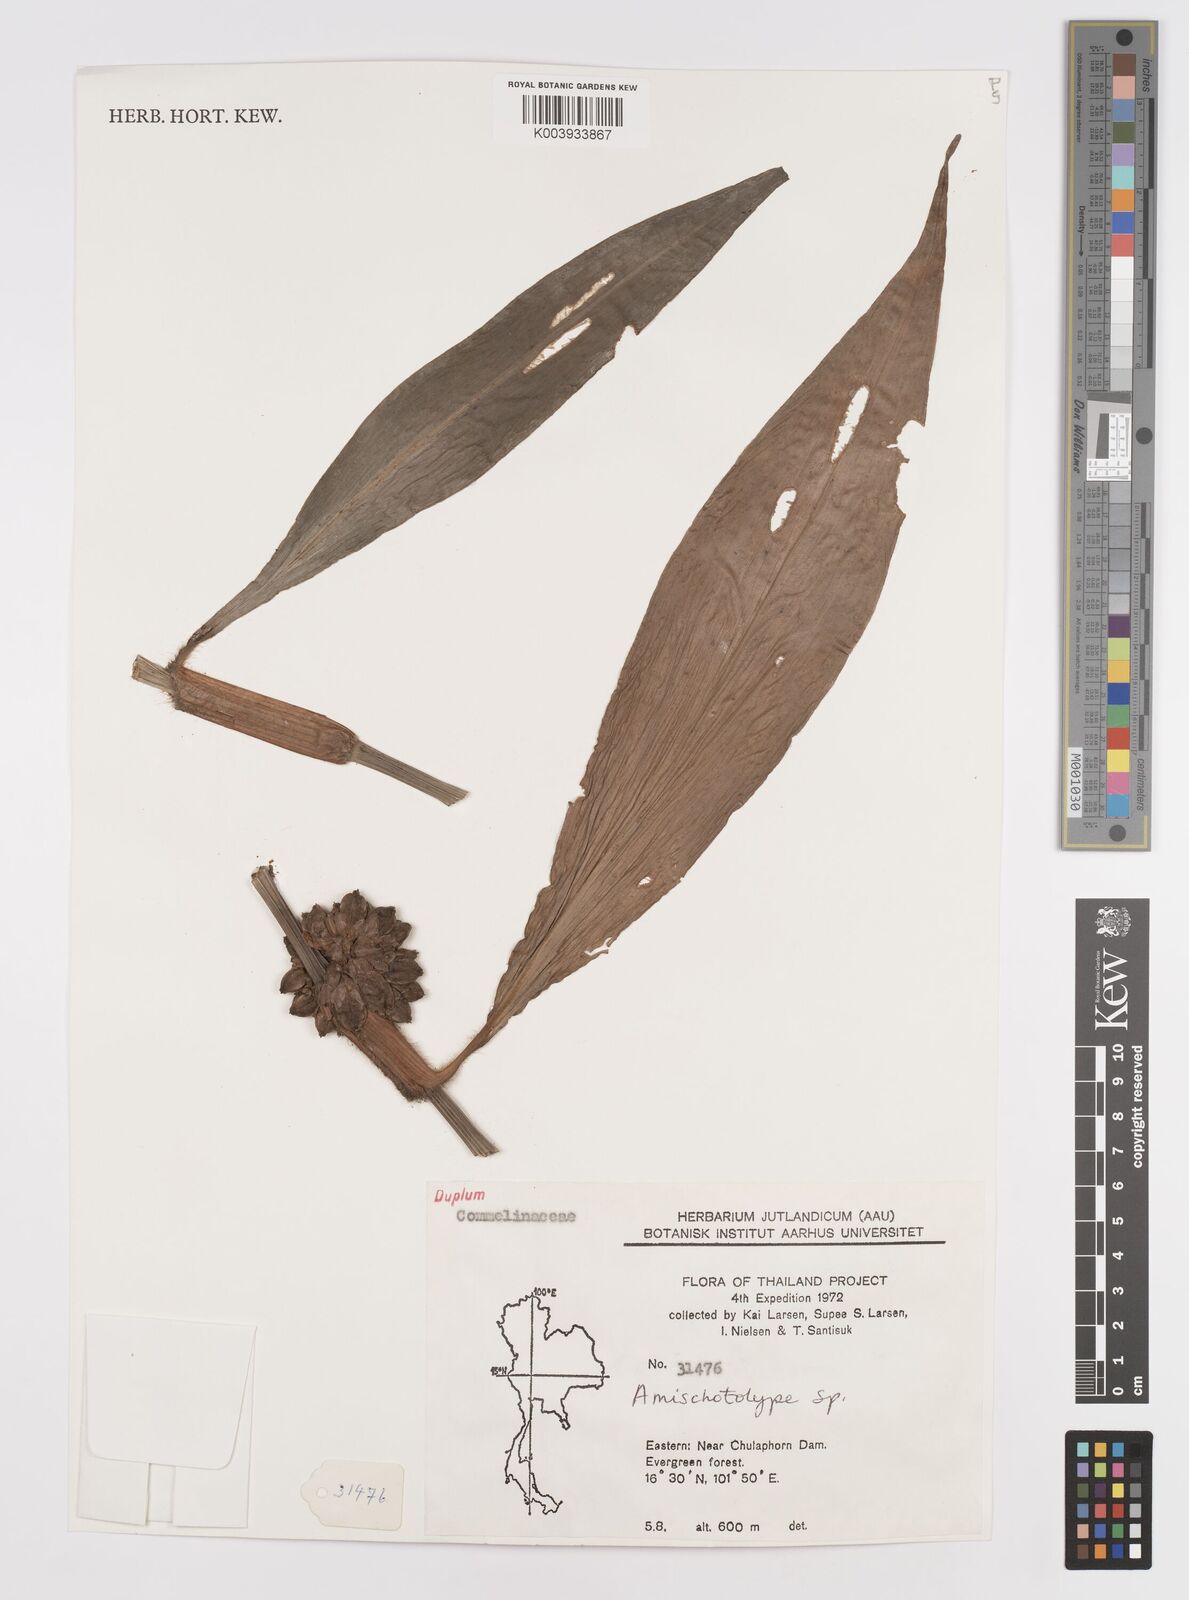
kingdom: Plantae
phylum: Tracheophyta
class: Liliopsida
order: Commelinales
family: Commelinaceae
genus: Amischotolype
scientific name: Amischotolype marginata
